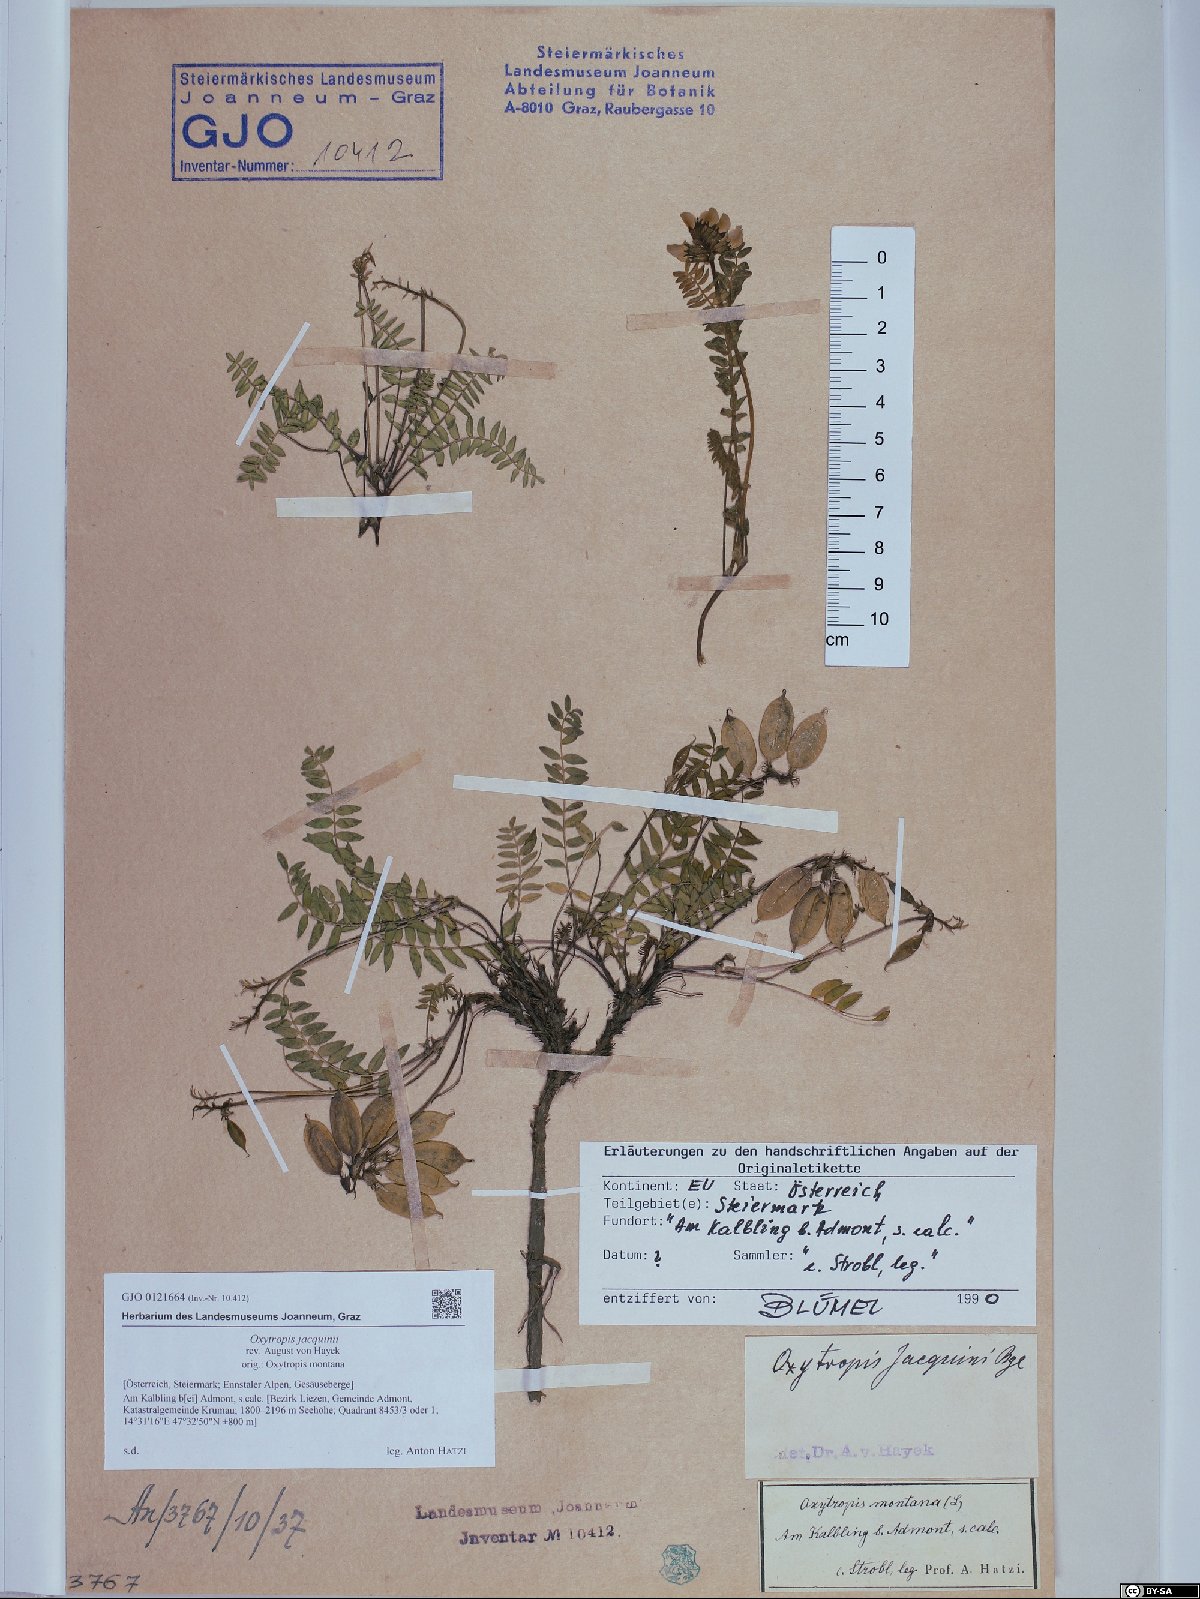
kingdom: Plantae
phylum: Tracheophyta
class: Magnoliopsida
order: Fabales
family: Fabaceae
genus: Oxytropis
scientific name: Oxytropis montana
